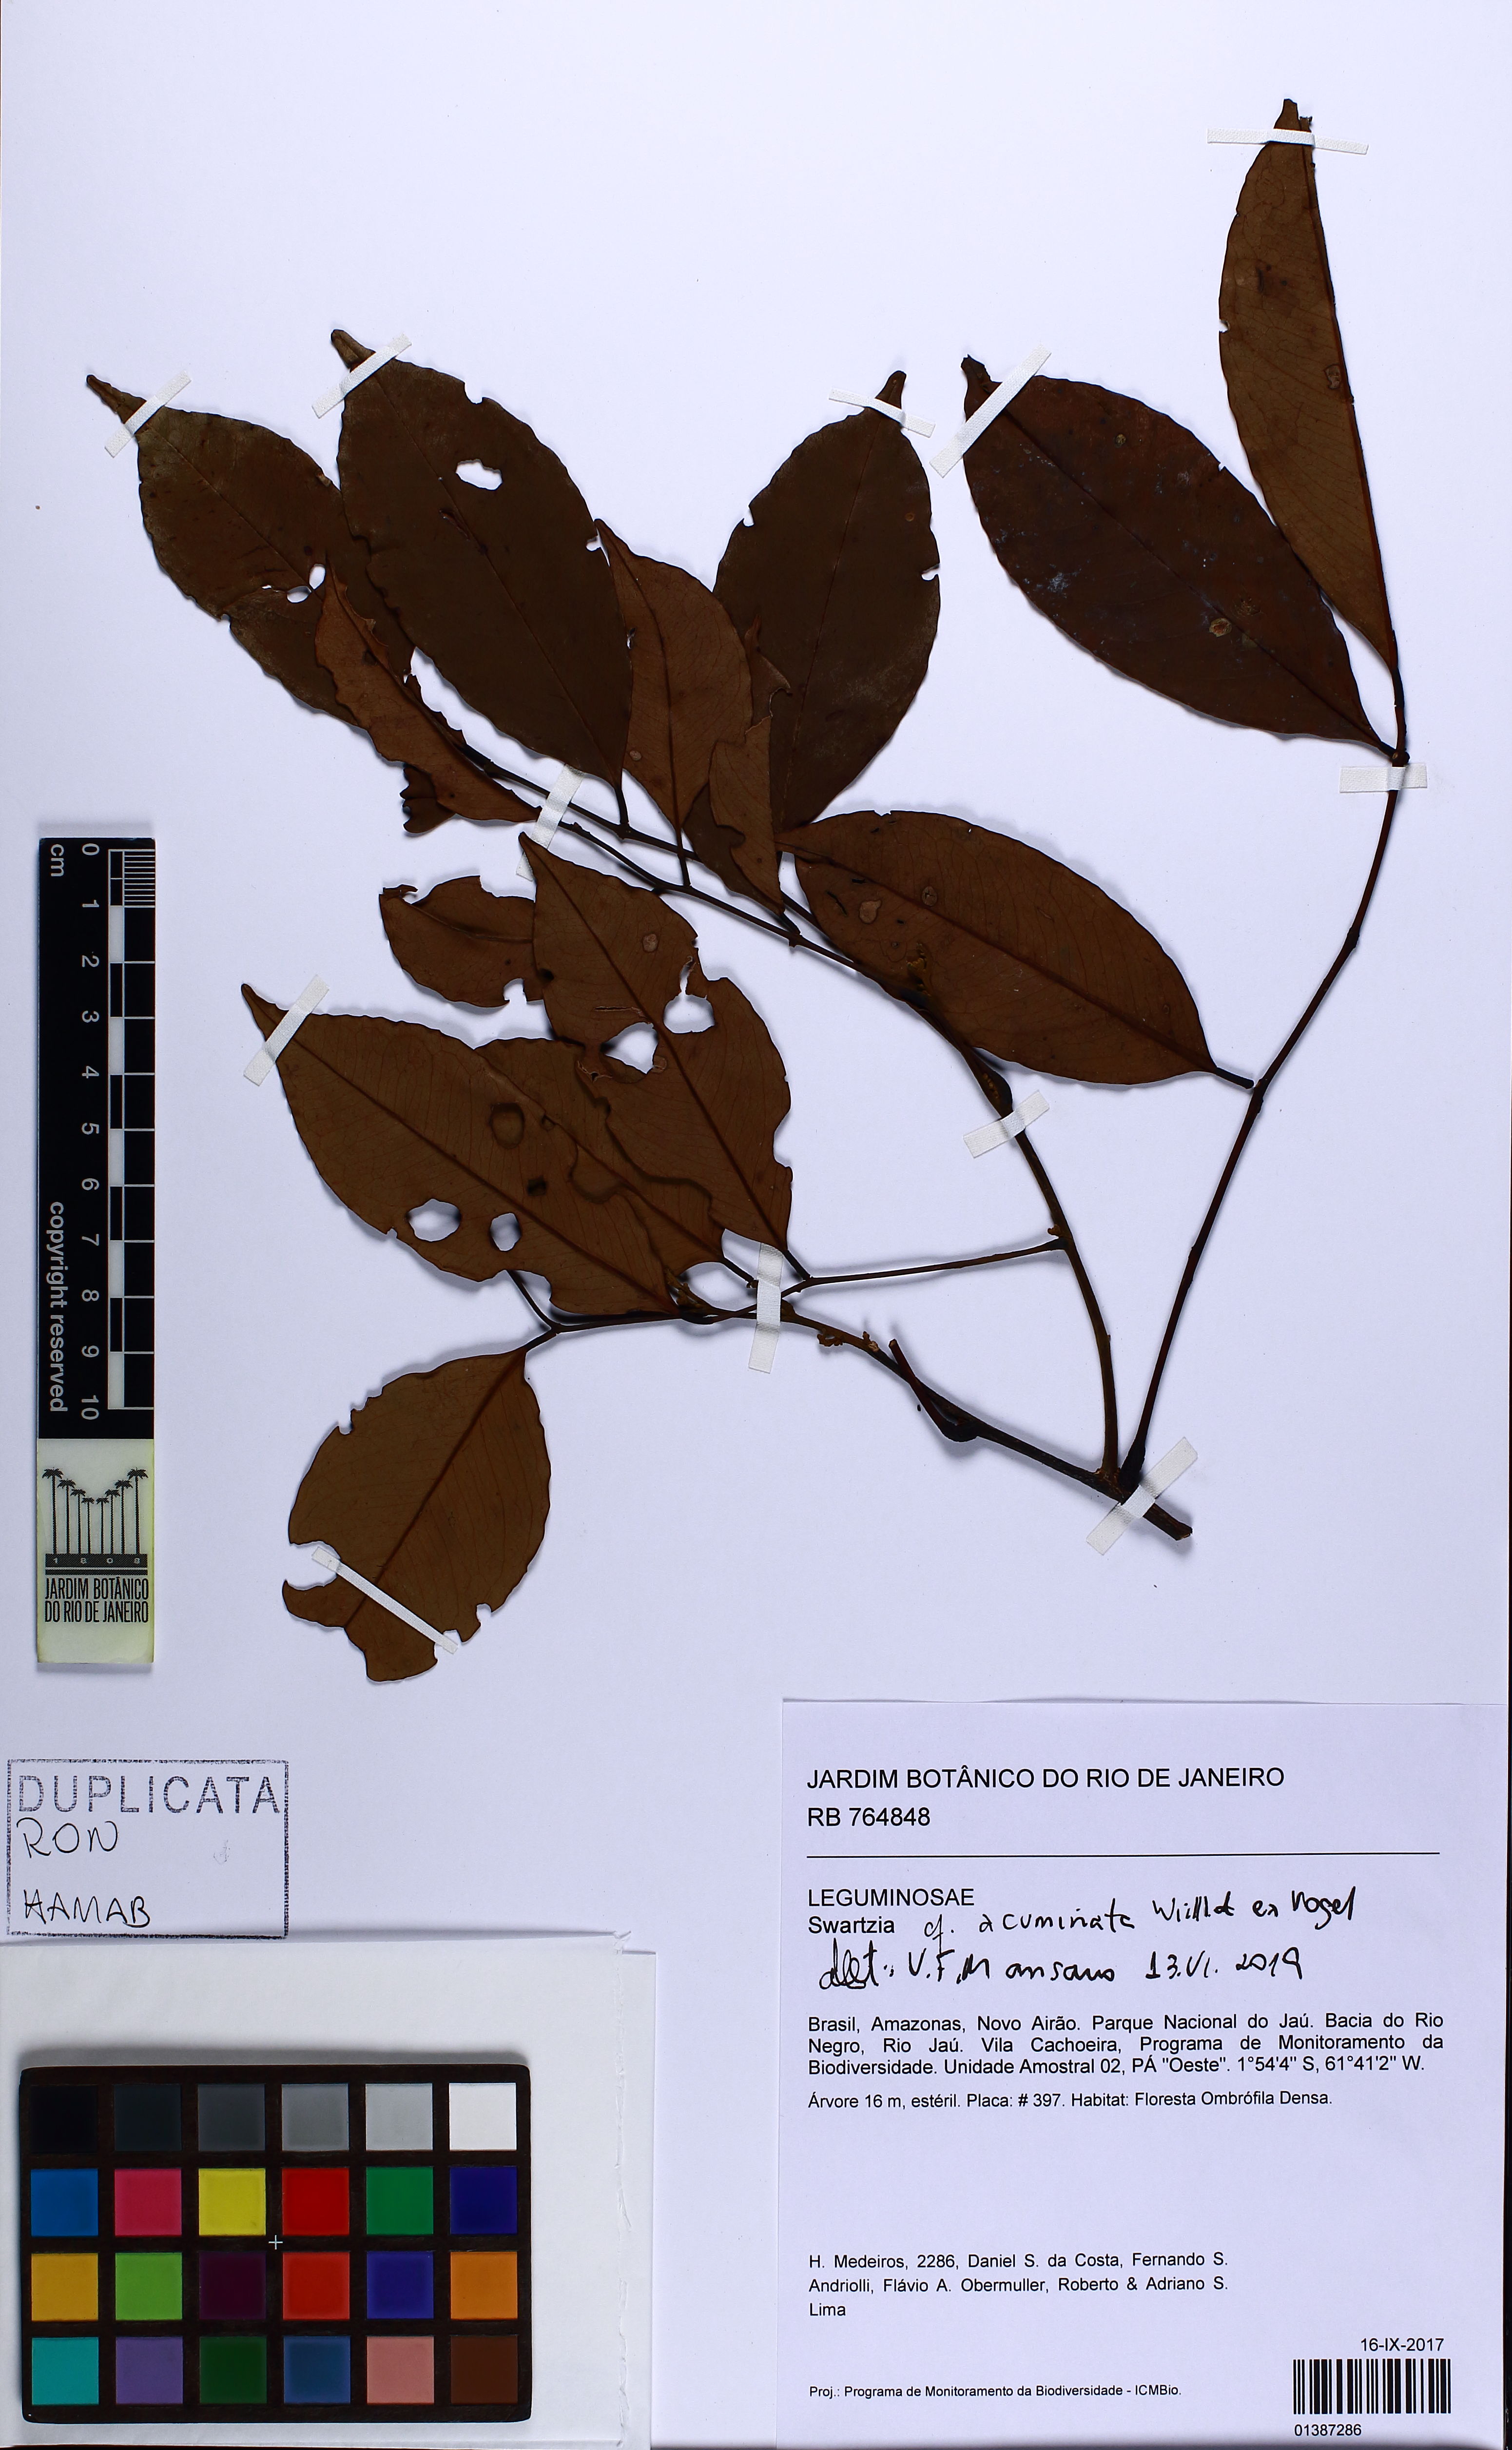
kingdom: Plantae
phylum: Tracheophyta
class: Magnoliopsida
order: Fabales
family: Fabaceae
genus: Swartzia
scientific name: Swartzia acuminata
